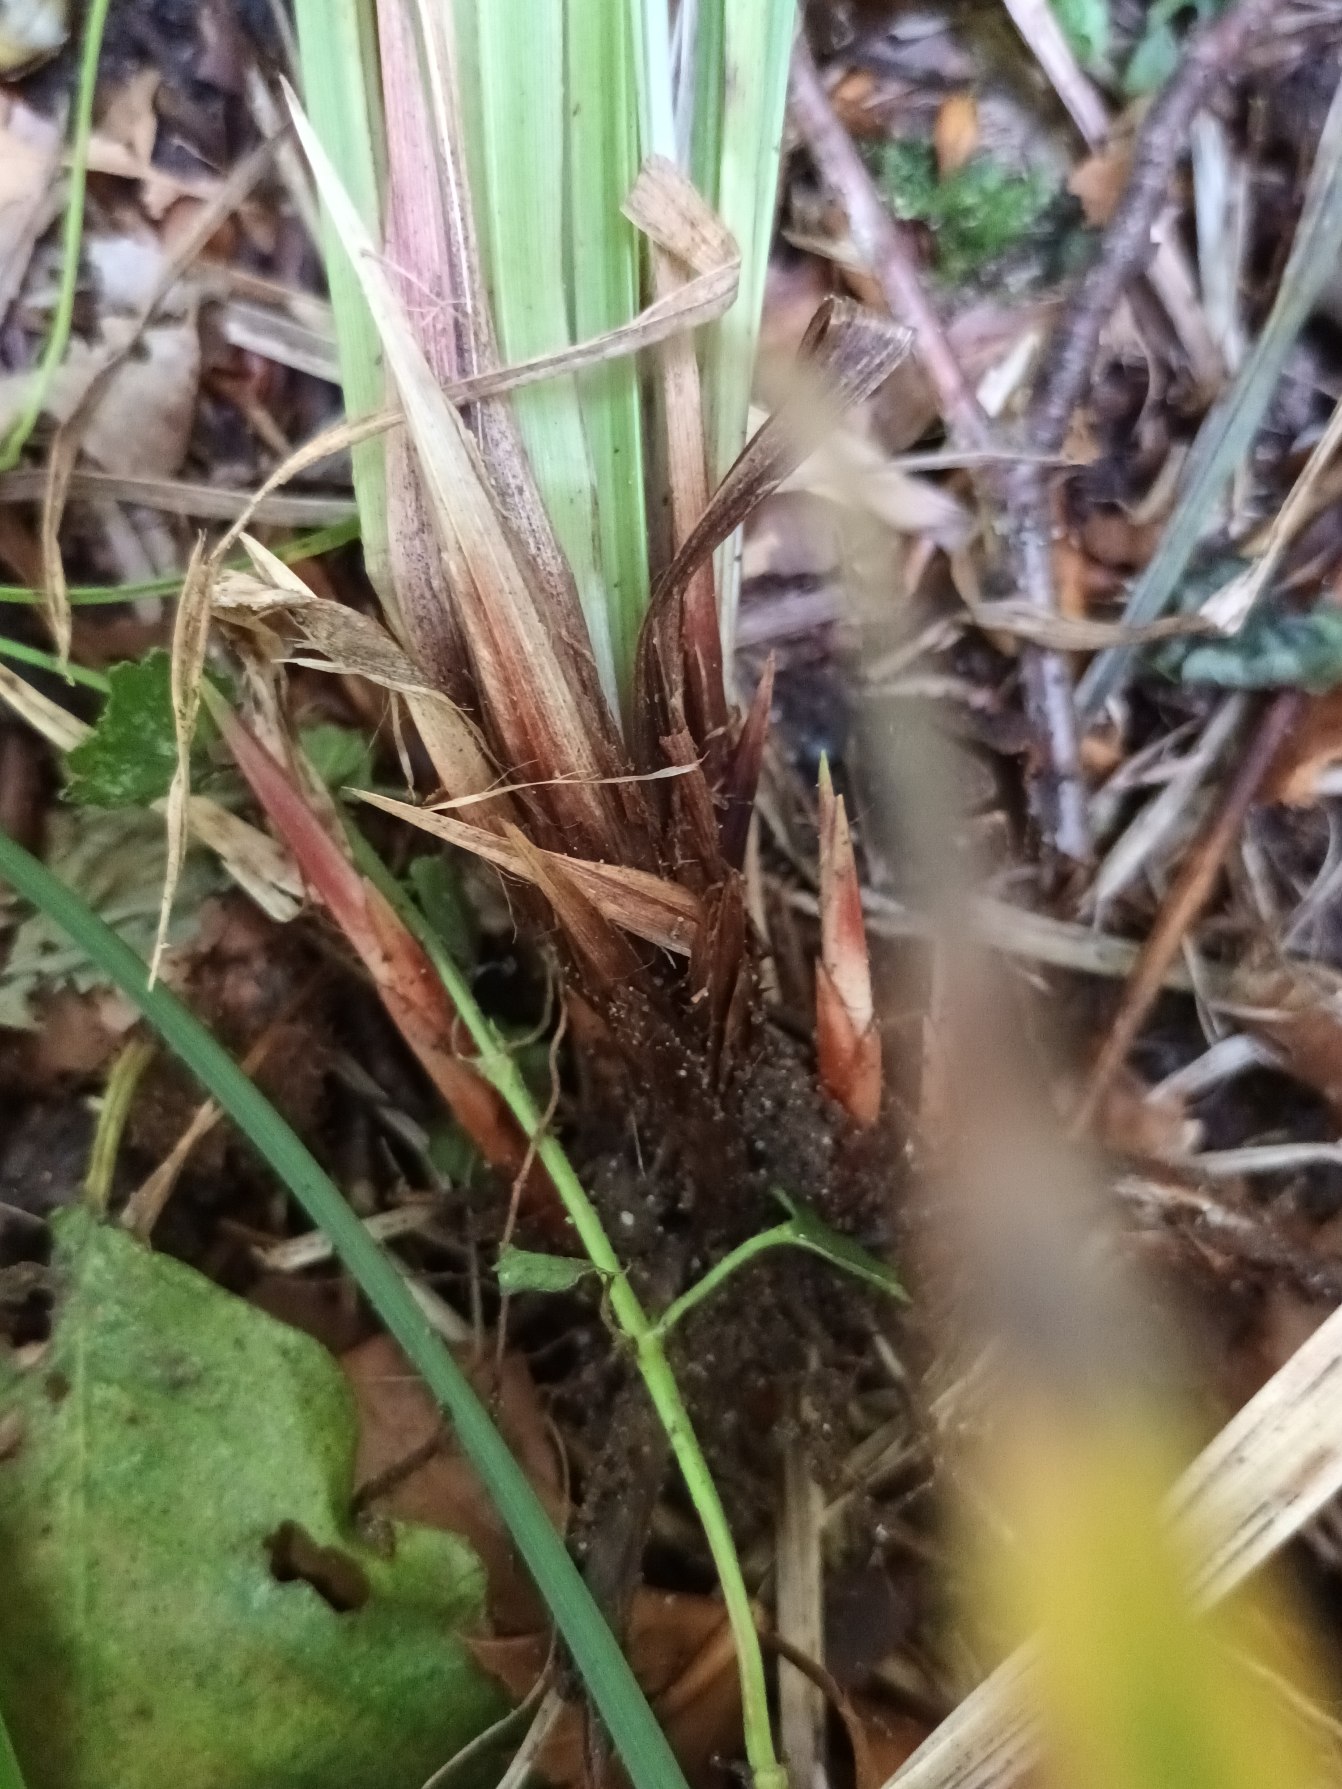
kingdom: Plantae
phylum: Tracheophyta
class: Liliopsida
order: Poales
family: Cyperaceae
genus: Carex
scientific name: Carex acutiformis
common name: Kær-star
